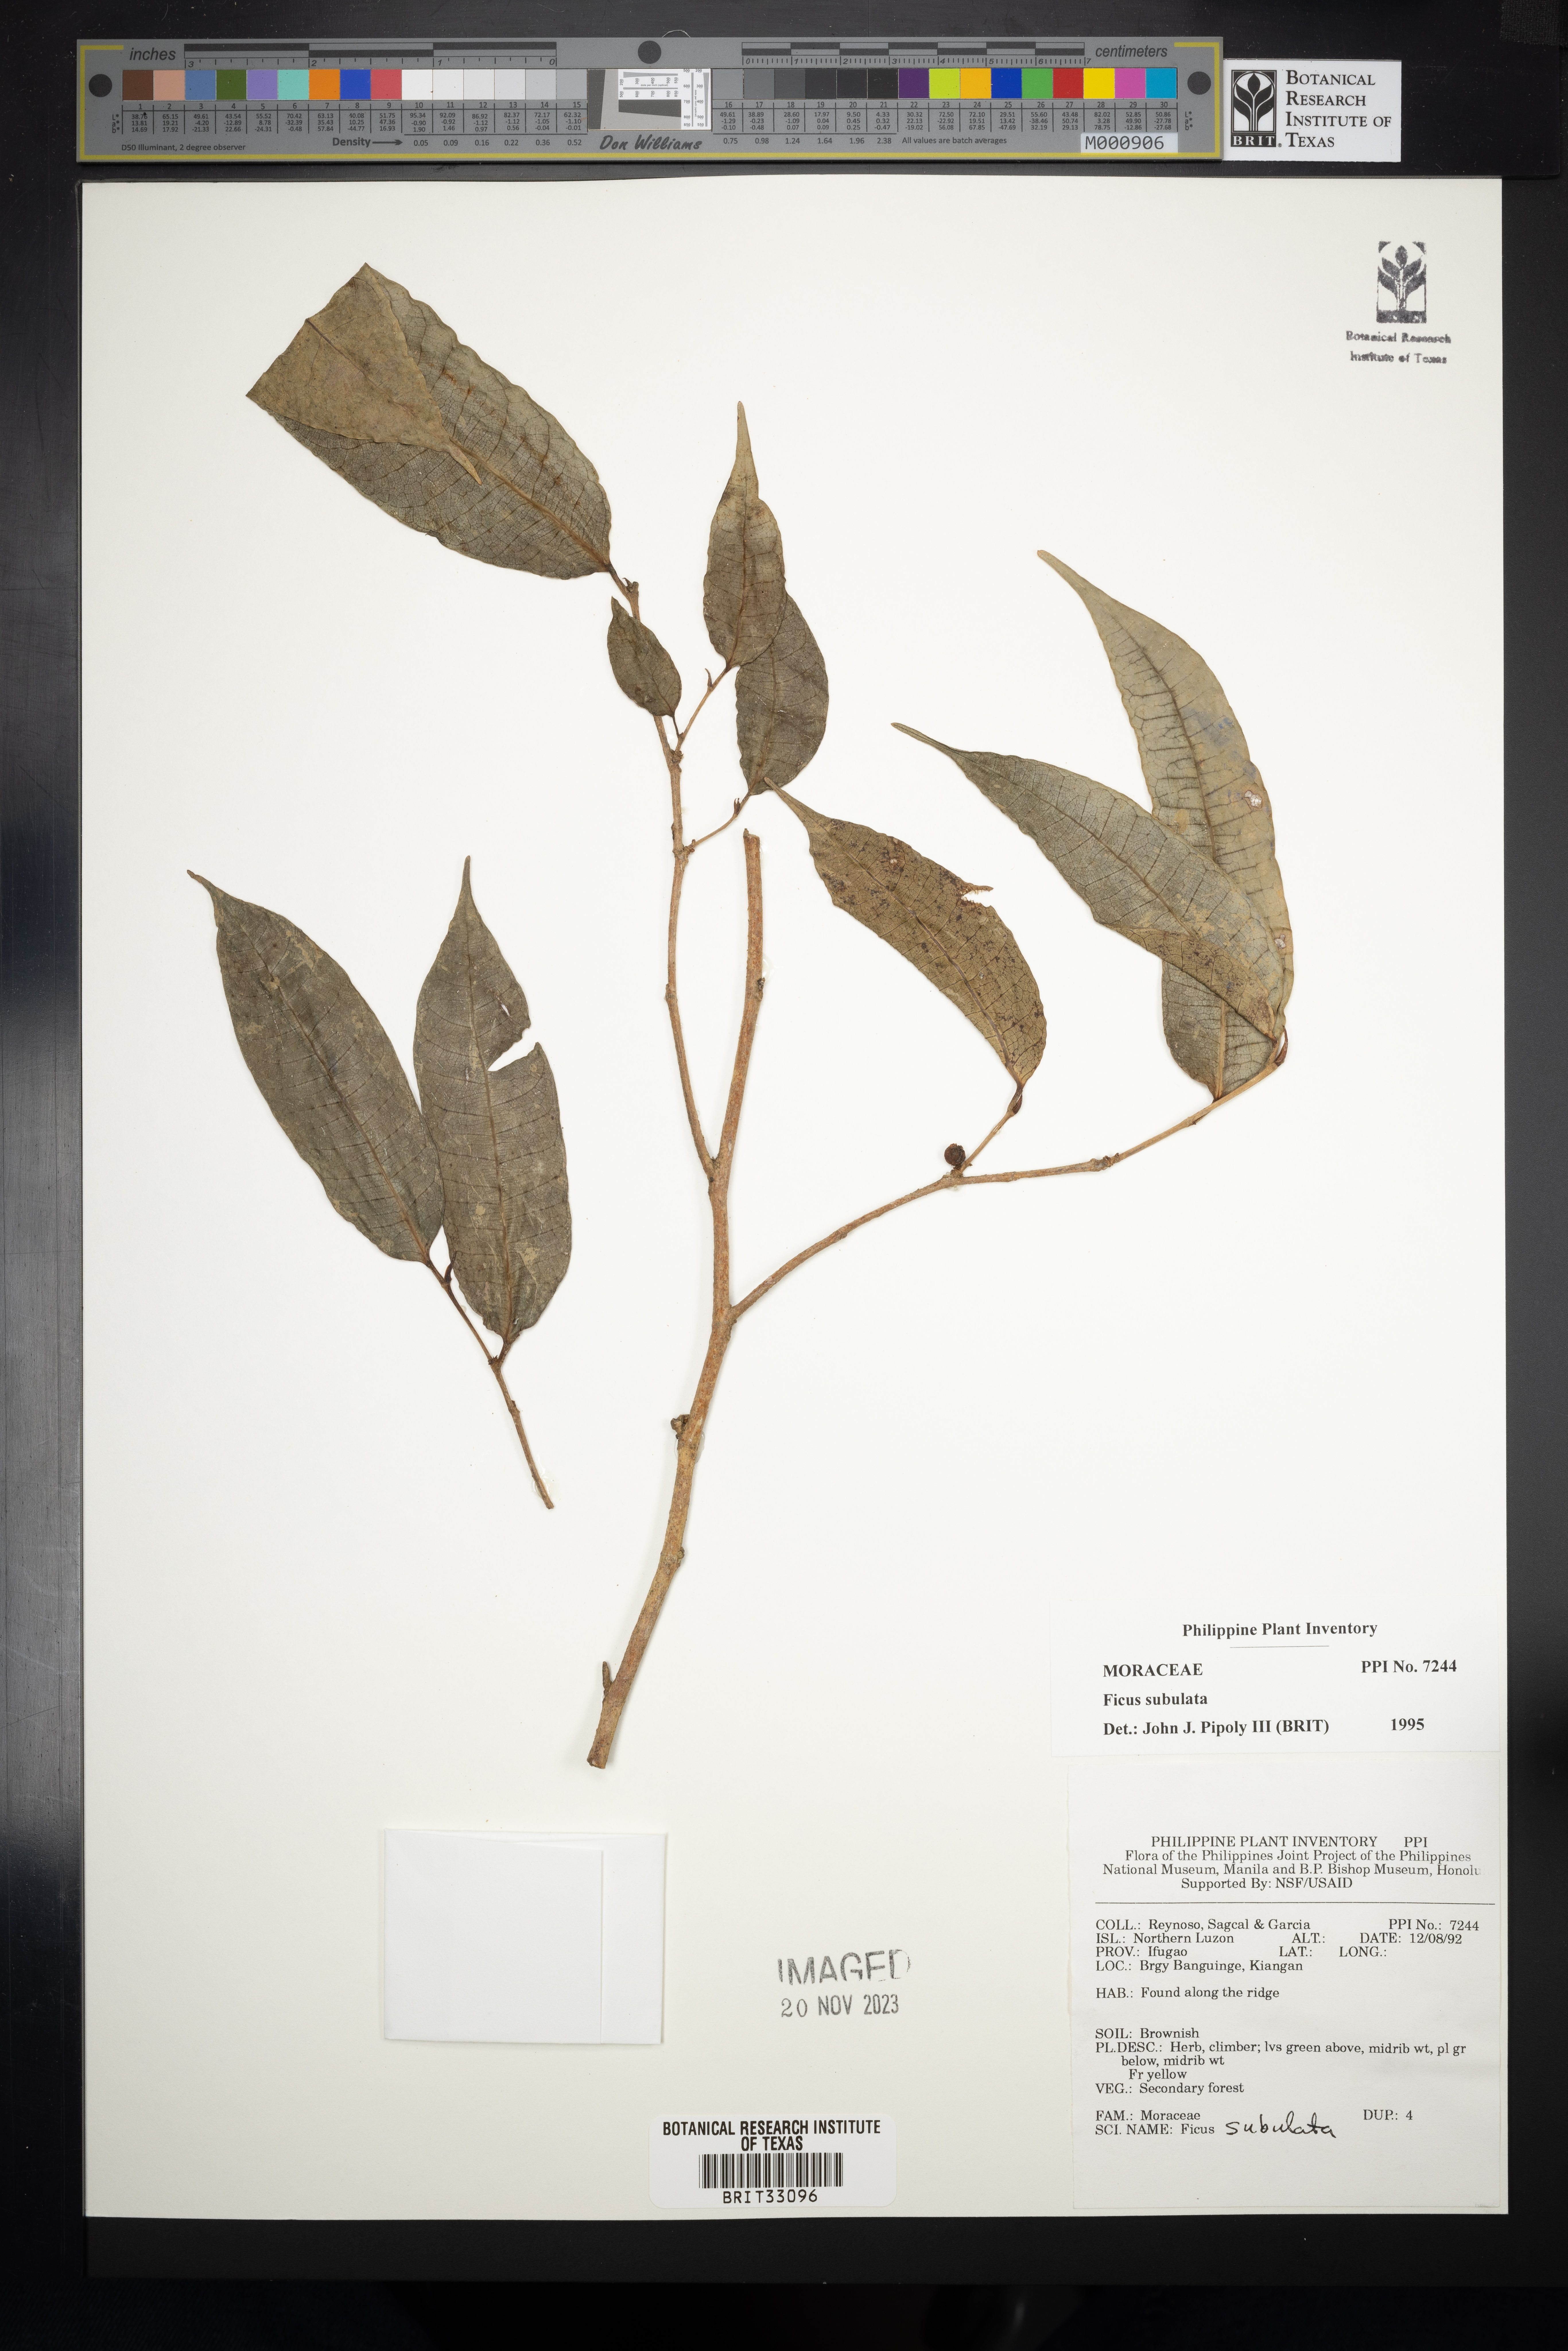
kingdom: Plantae
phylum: Tracheophyta
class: Magnoliopsida
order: Rosales
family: Moraceae
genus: Ficus
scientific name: Ficus subulata
